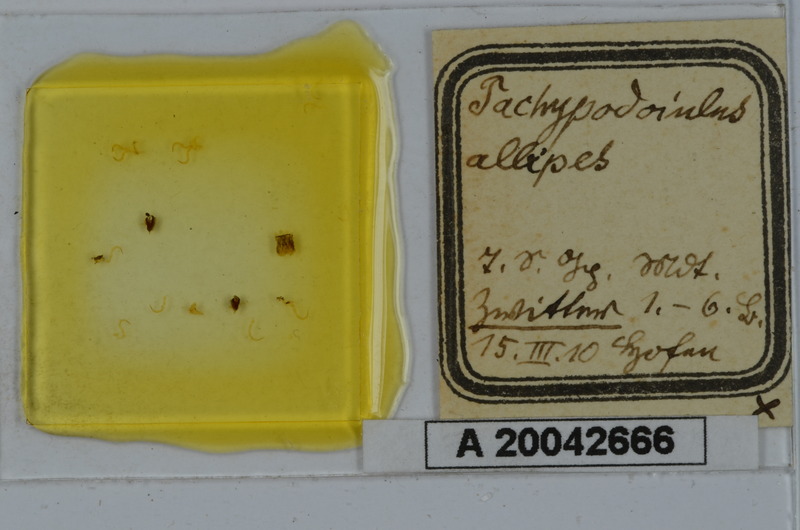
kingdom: Animalia
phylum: Arthropoda
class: Diplopoda
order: Julida
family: Julidae
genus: Tachypodoiulus
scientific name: Tachypodoiulus niger
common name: White-legged snake millipede
